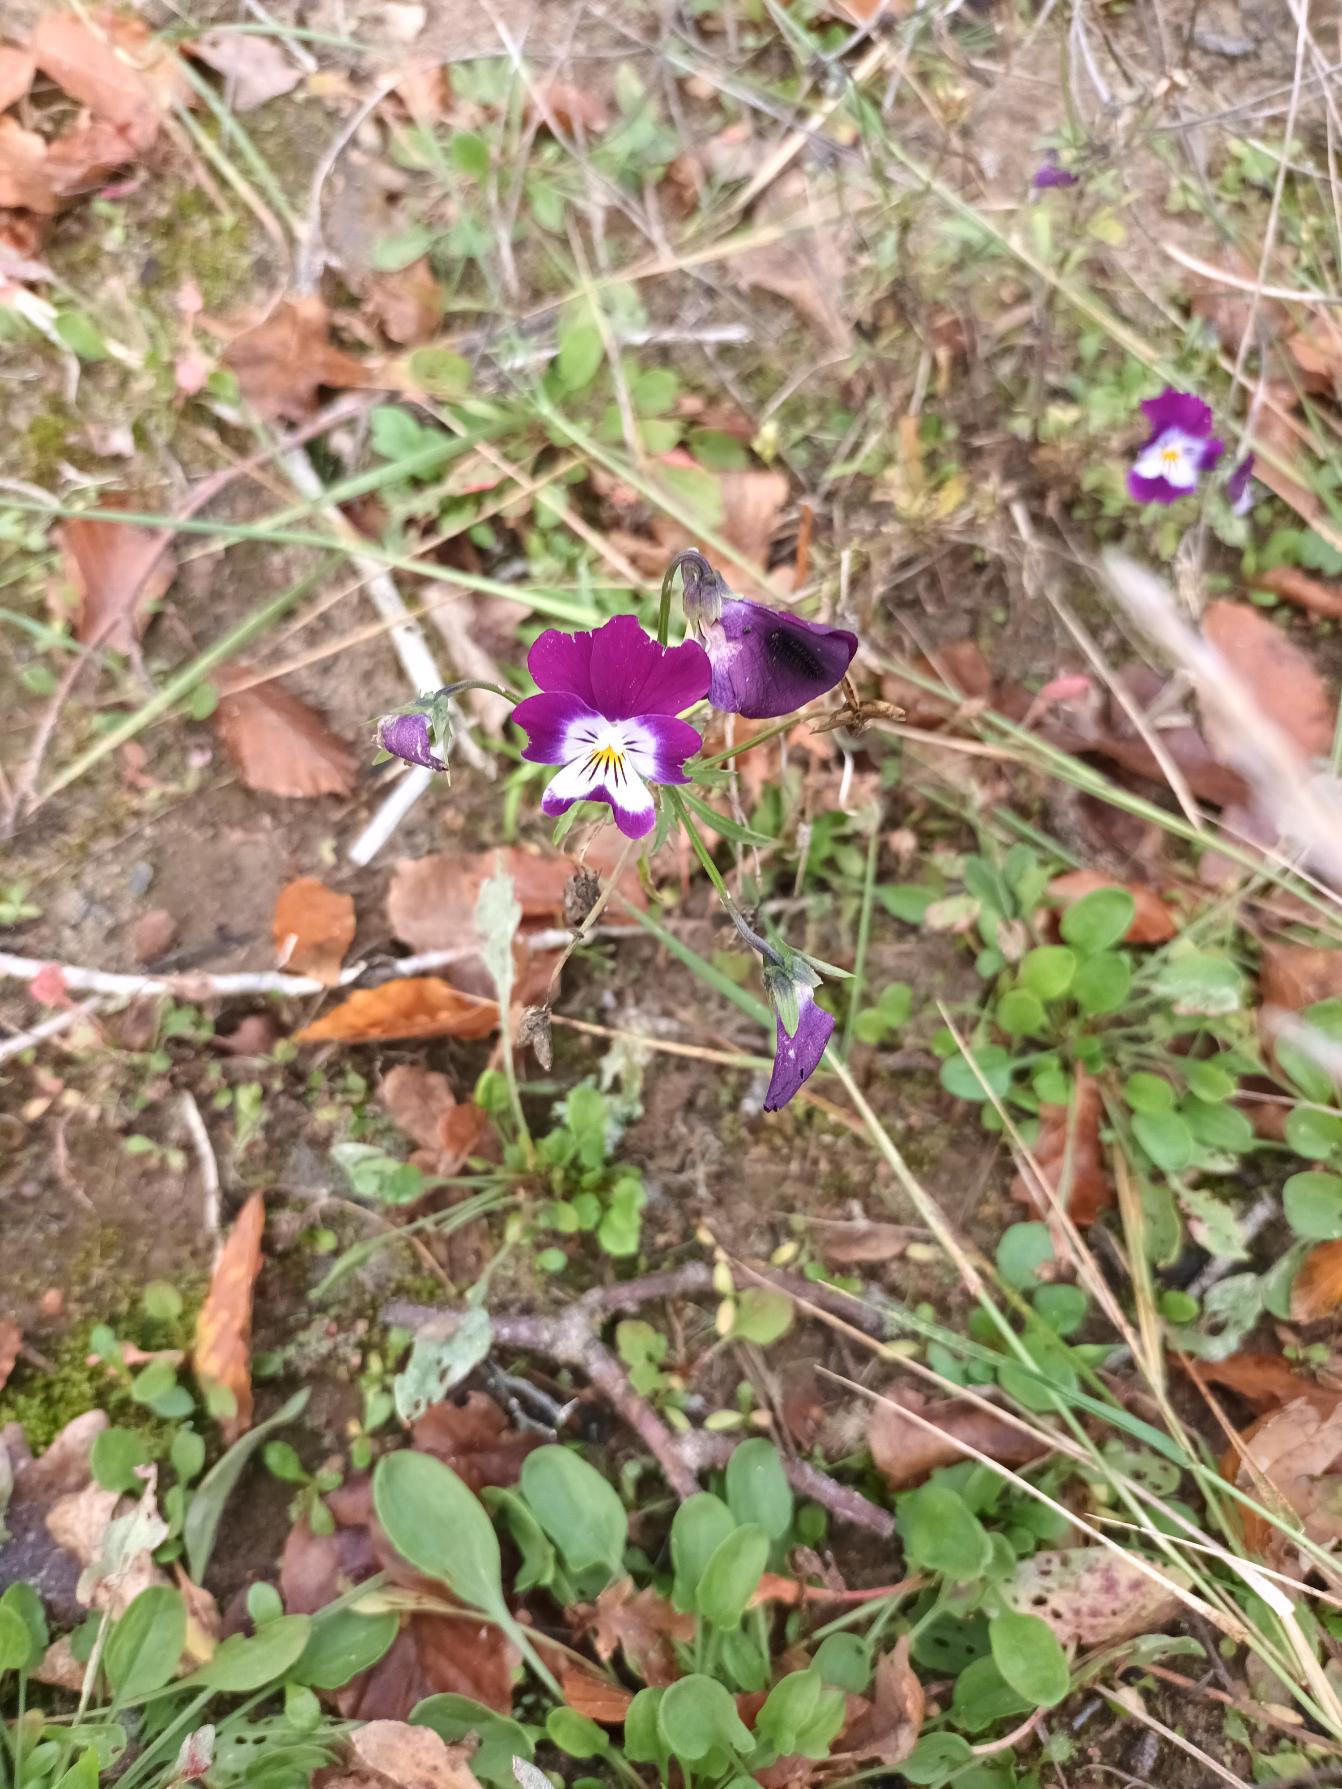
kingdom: Plantae
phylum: Tracheophyta
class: Magnoliopsida
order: Malpighiales
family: Violaceae
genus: Viola
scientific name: Viola wittrockiana
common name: Have-stedmoderblomst
